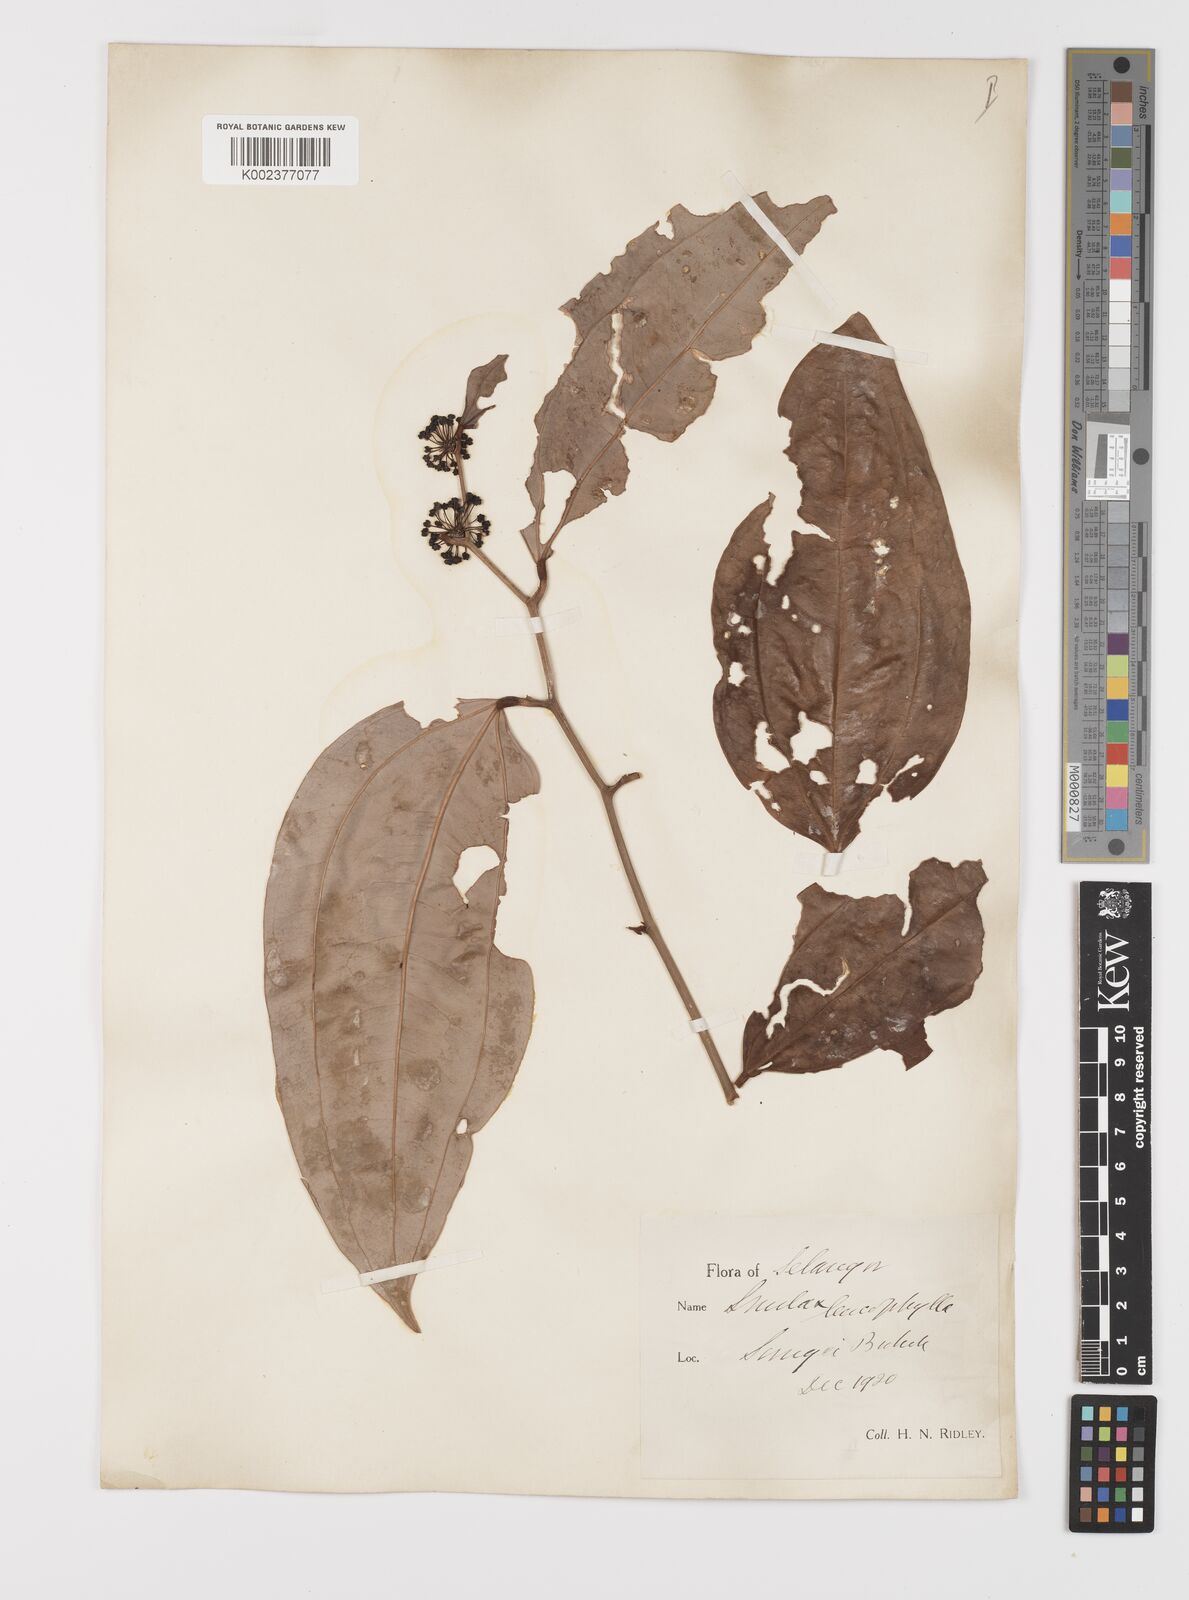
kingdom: Plantae
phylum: Tracheophyta
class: Liliopsida
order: Liliales
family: Smilacaceae
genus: Smilax
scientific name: Smilax leucophylla
